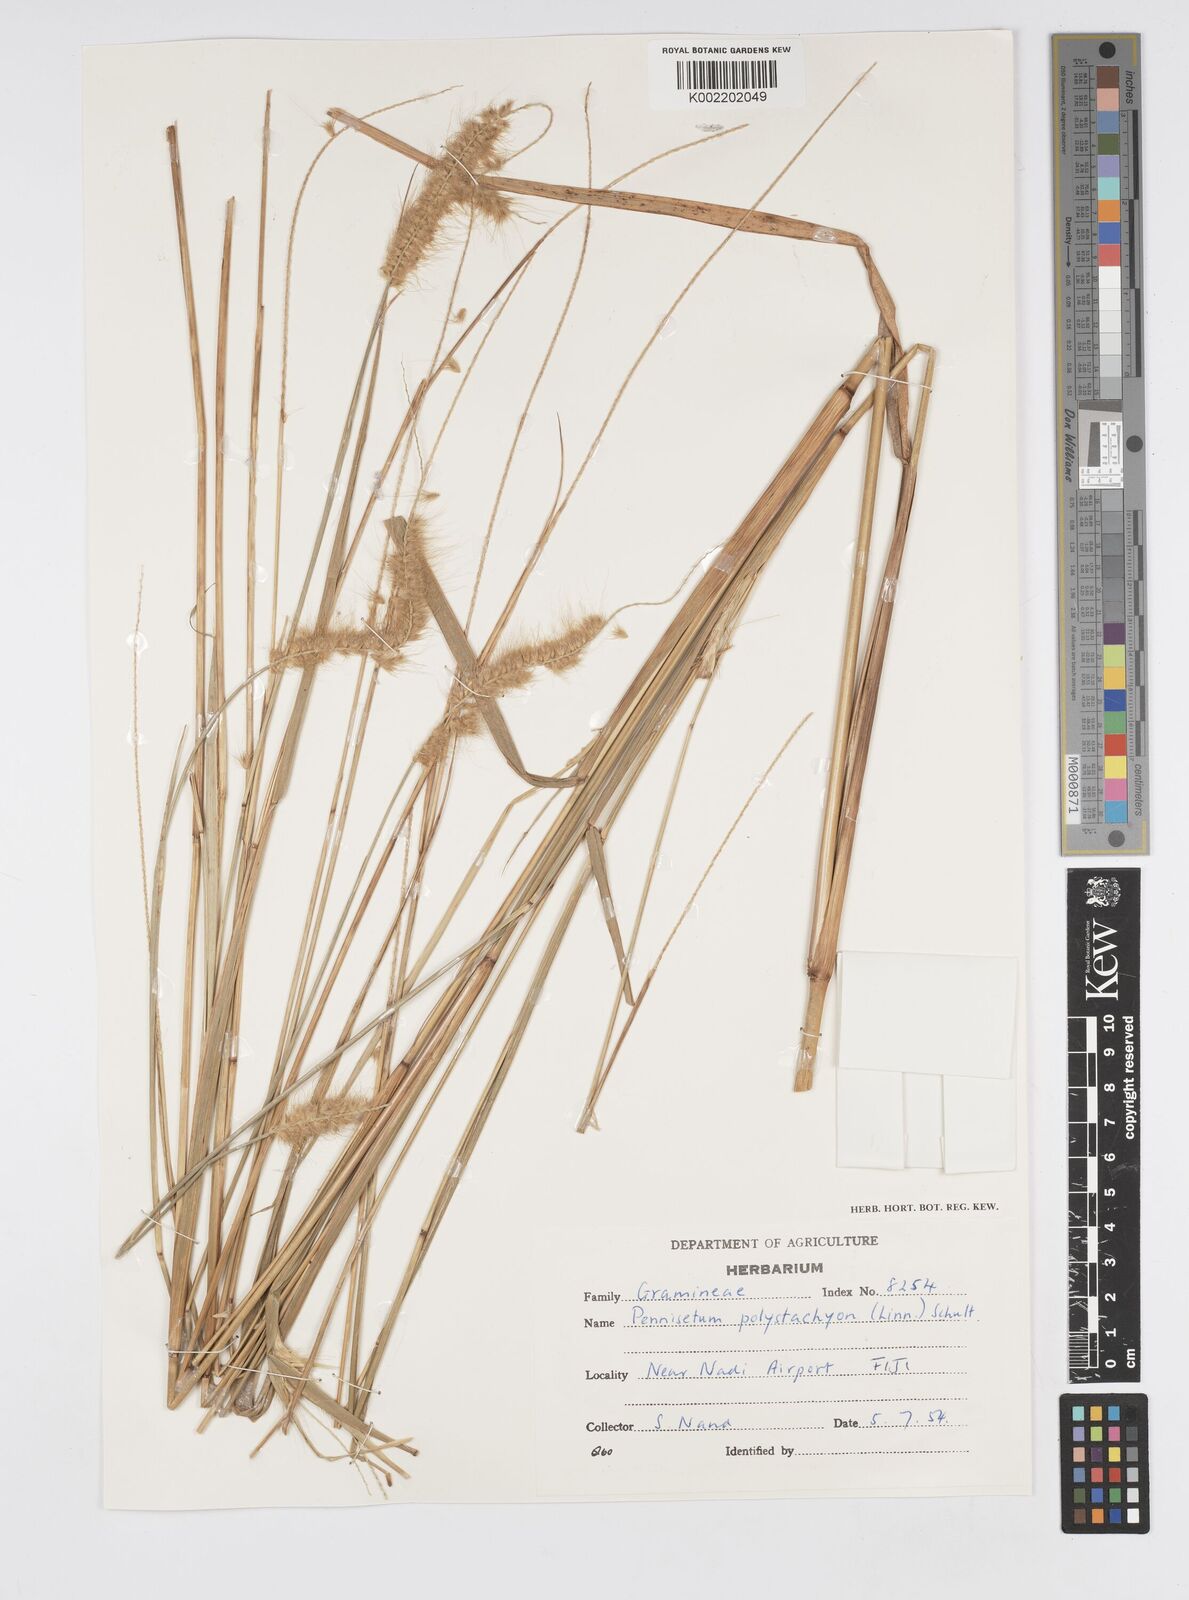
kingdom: Plantae
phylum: Tracheophyta
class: Liliopsida
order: Poales
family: Poaceae
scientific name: Poaceae
